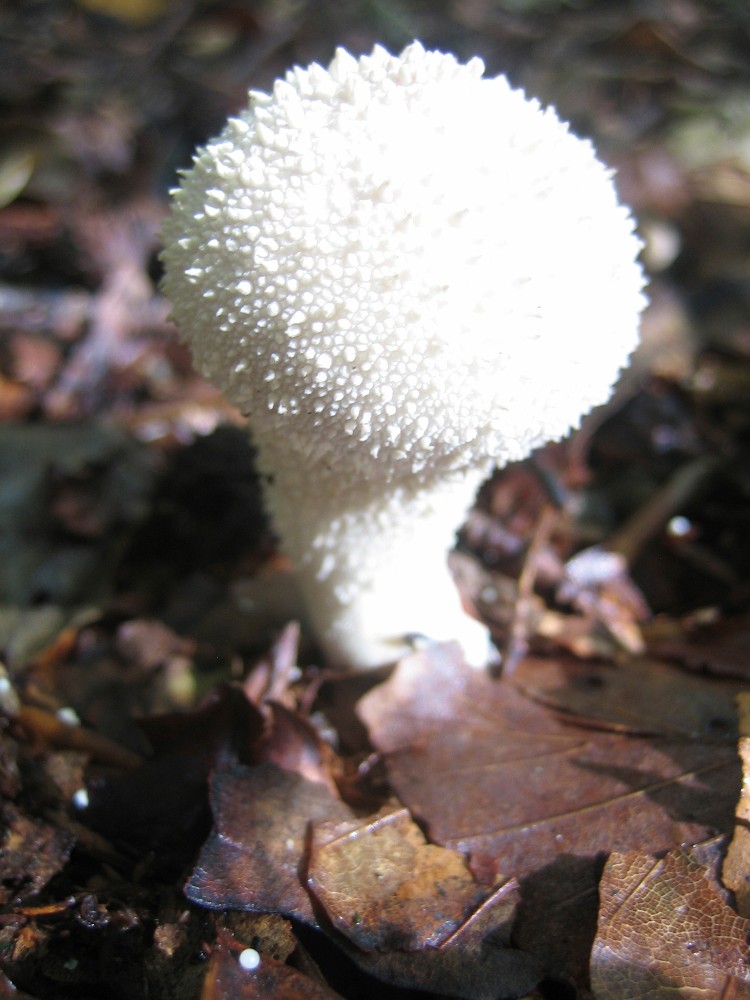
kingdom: Fungi
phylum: Basidiomycota
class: Agaricomycetes
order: Agaricales
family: Lycoperdaceae
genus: Lycoperdon
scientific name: Lycoperdon perlatum
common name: krystal-støvbold
